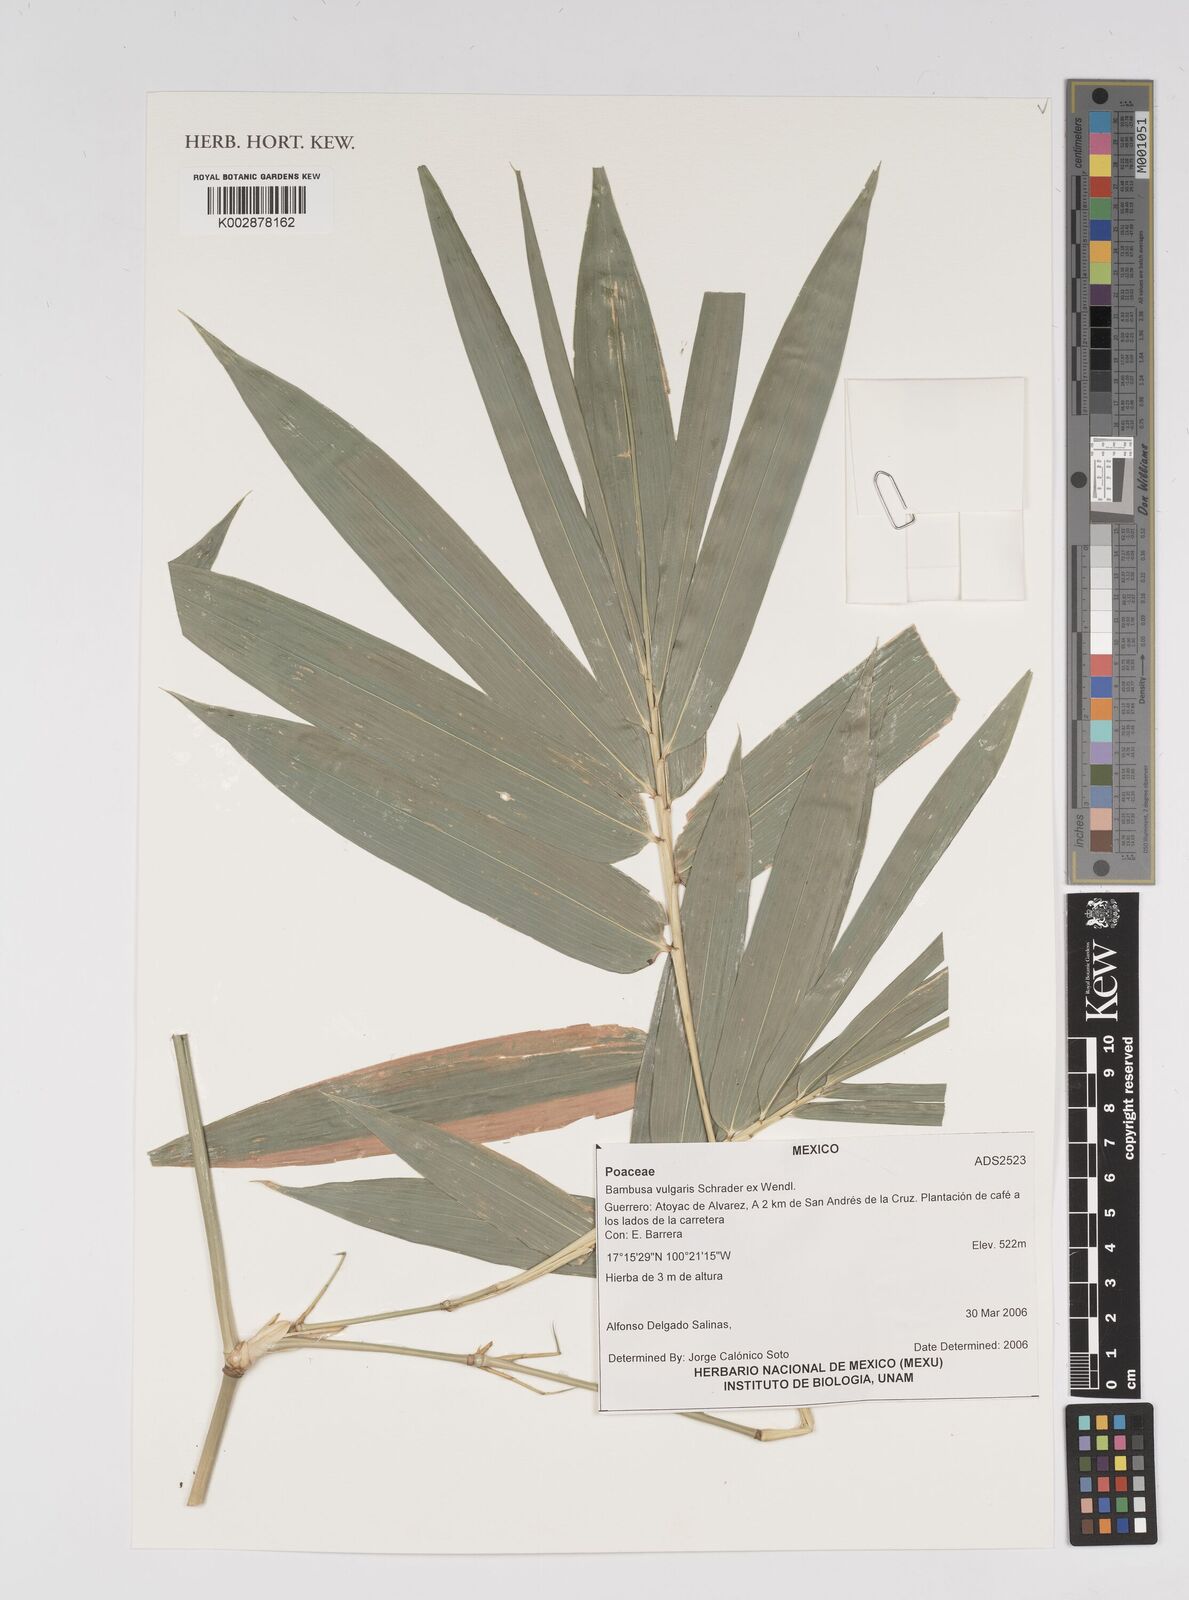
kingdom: Plantae
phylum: Tracheophyta
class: Liliopsida
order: Poales
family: Poaceae
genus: Bambusa
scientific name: Bambusa
